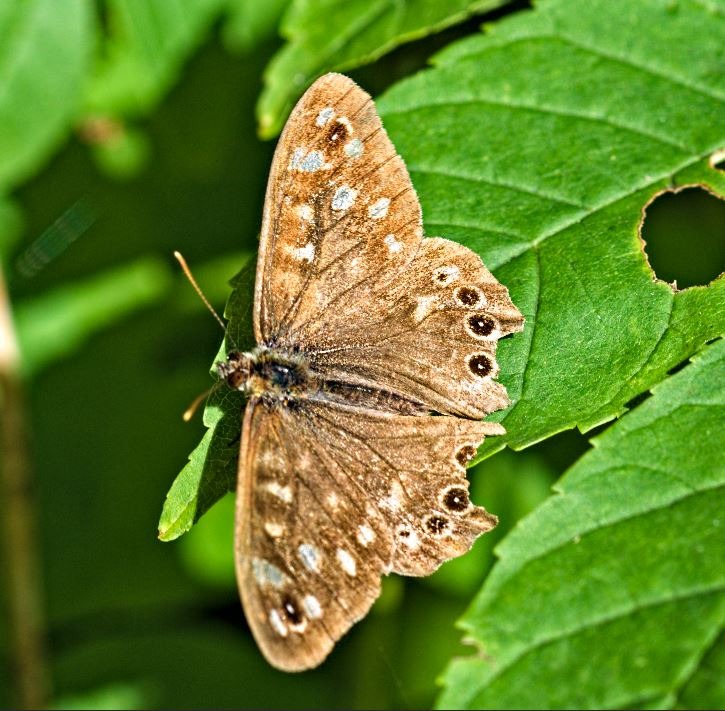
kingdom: Animalia
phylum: Arthropoda
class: Insecta
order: Lepidoptera
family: Nymphalidae
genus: Pararge
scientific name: Pararge aegeria
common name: Skovrandøje
